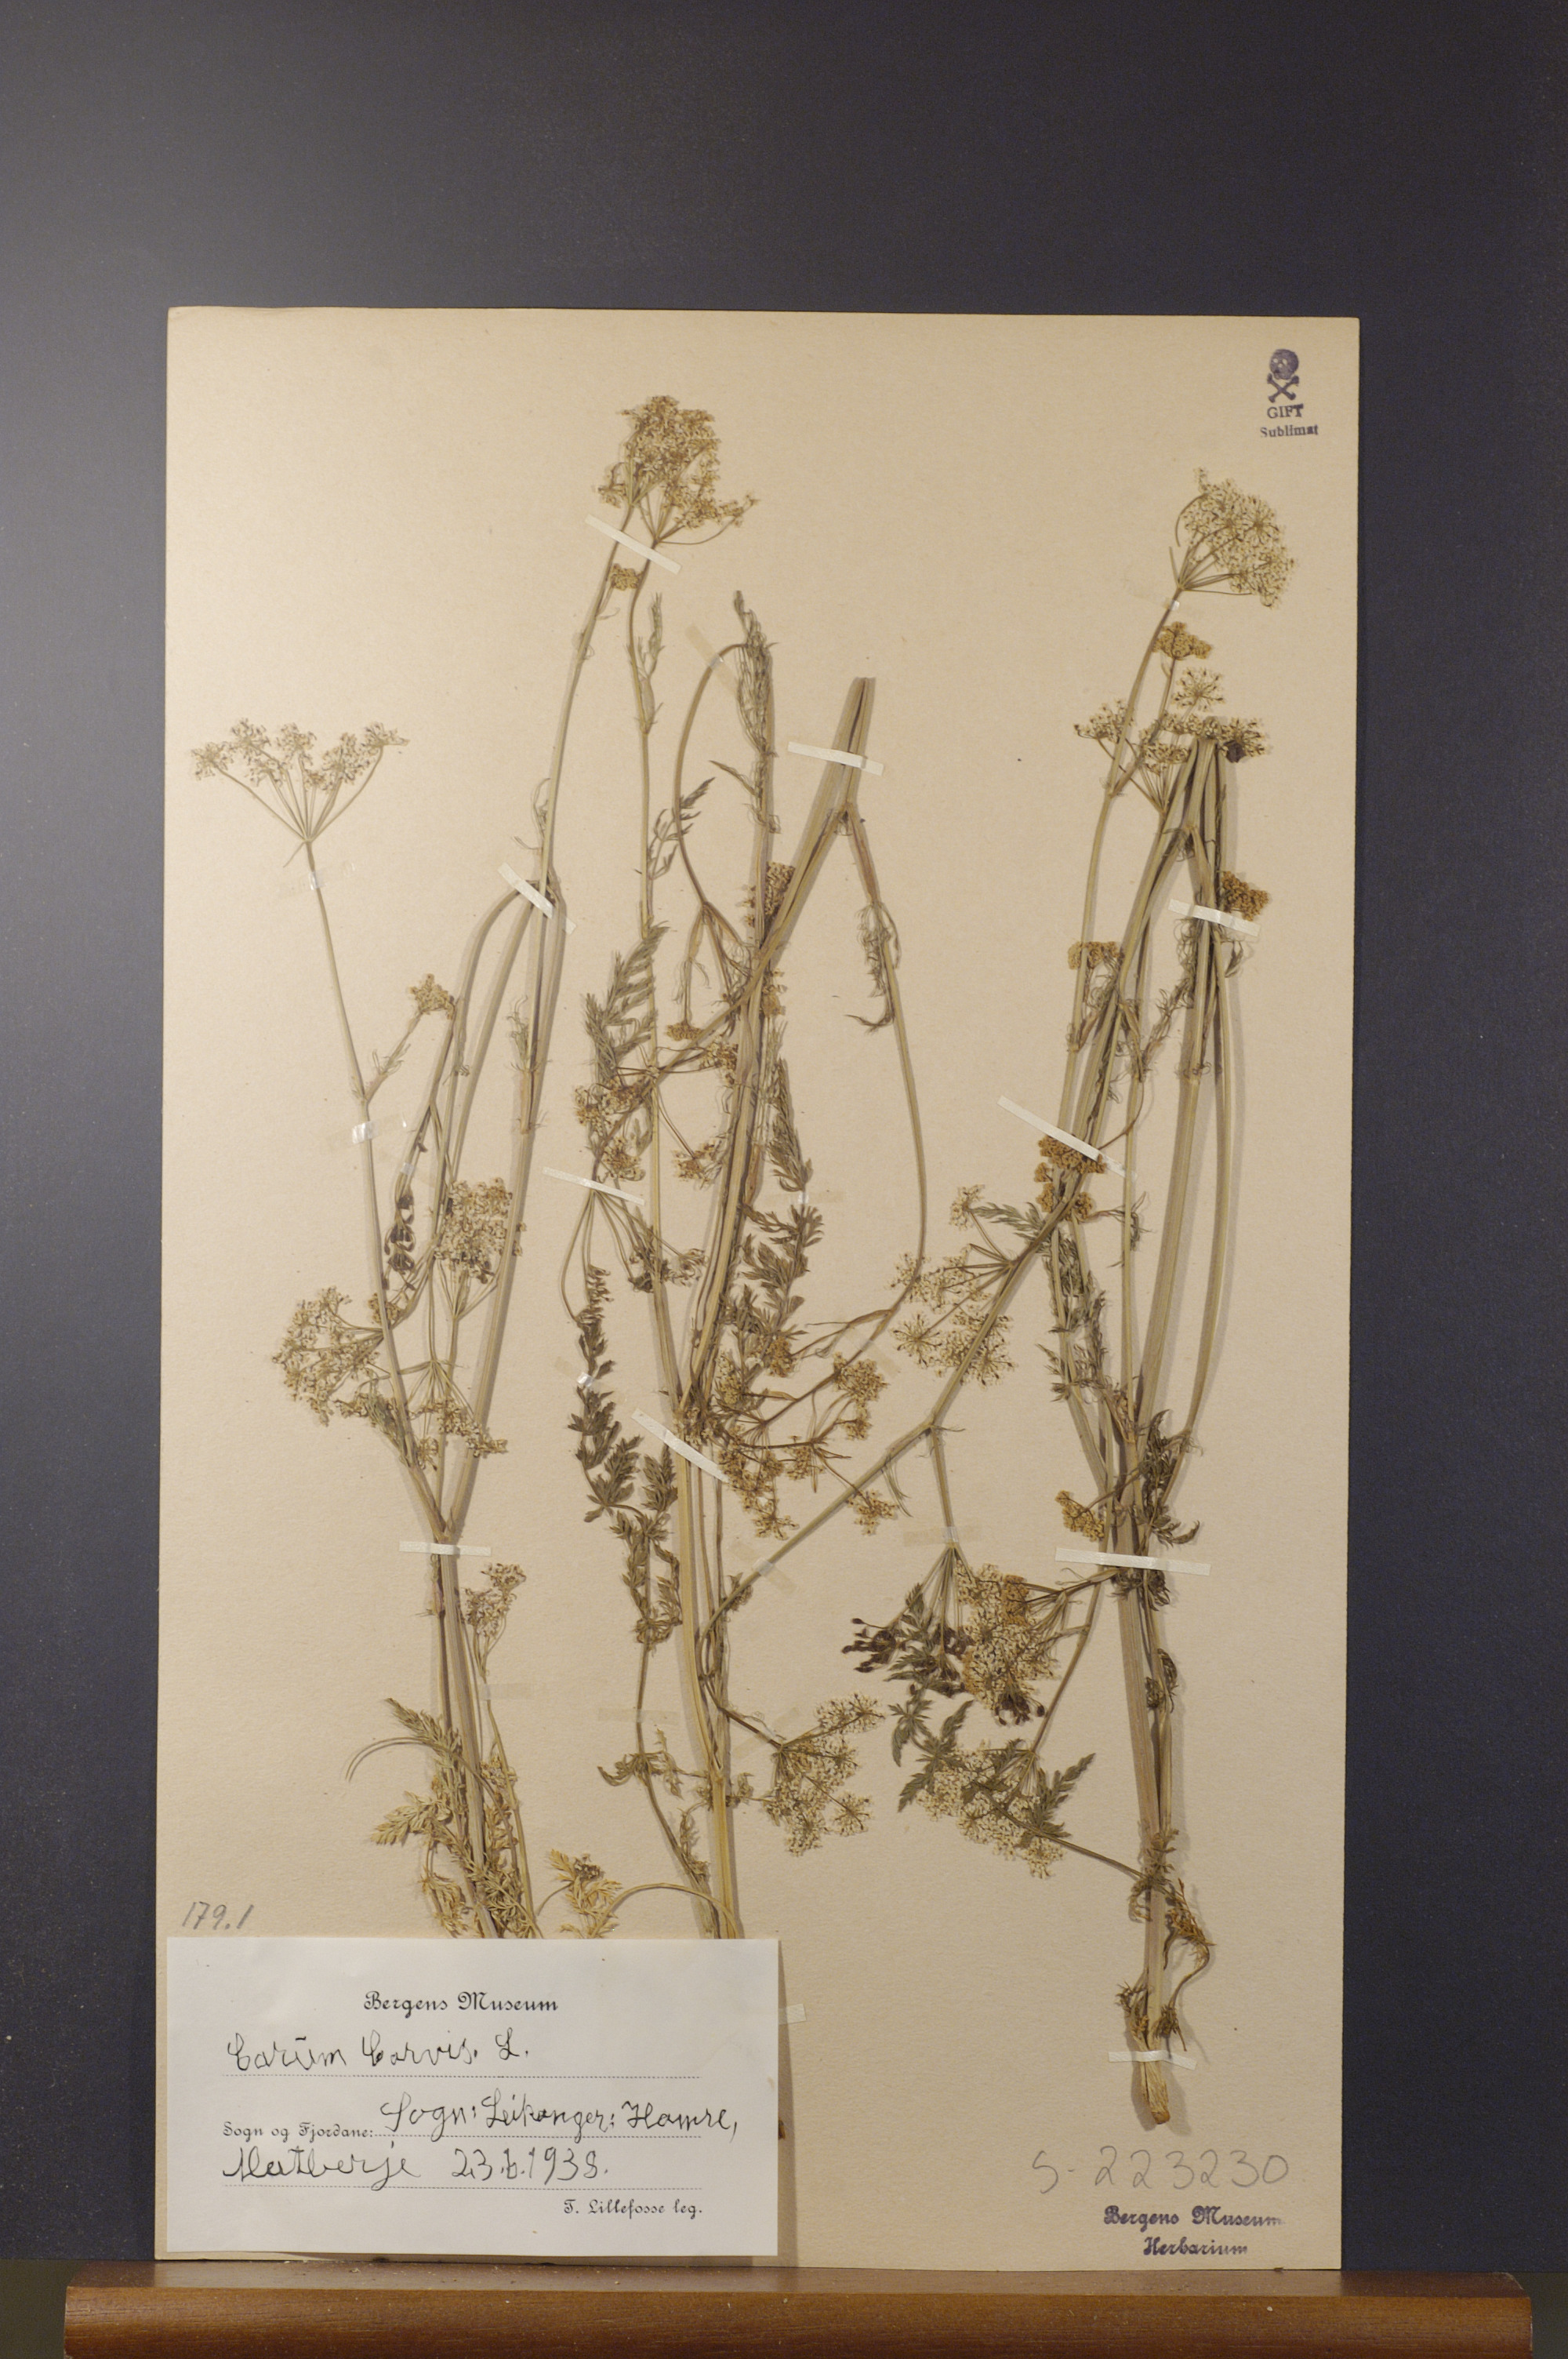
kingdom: Plantae
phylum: Tracheophyta
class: Magnoliopsida
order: Apiales
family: Apiaceae
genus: Carum
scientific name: Carum carvi
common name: Caraway
